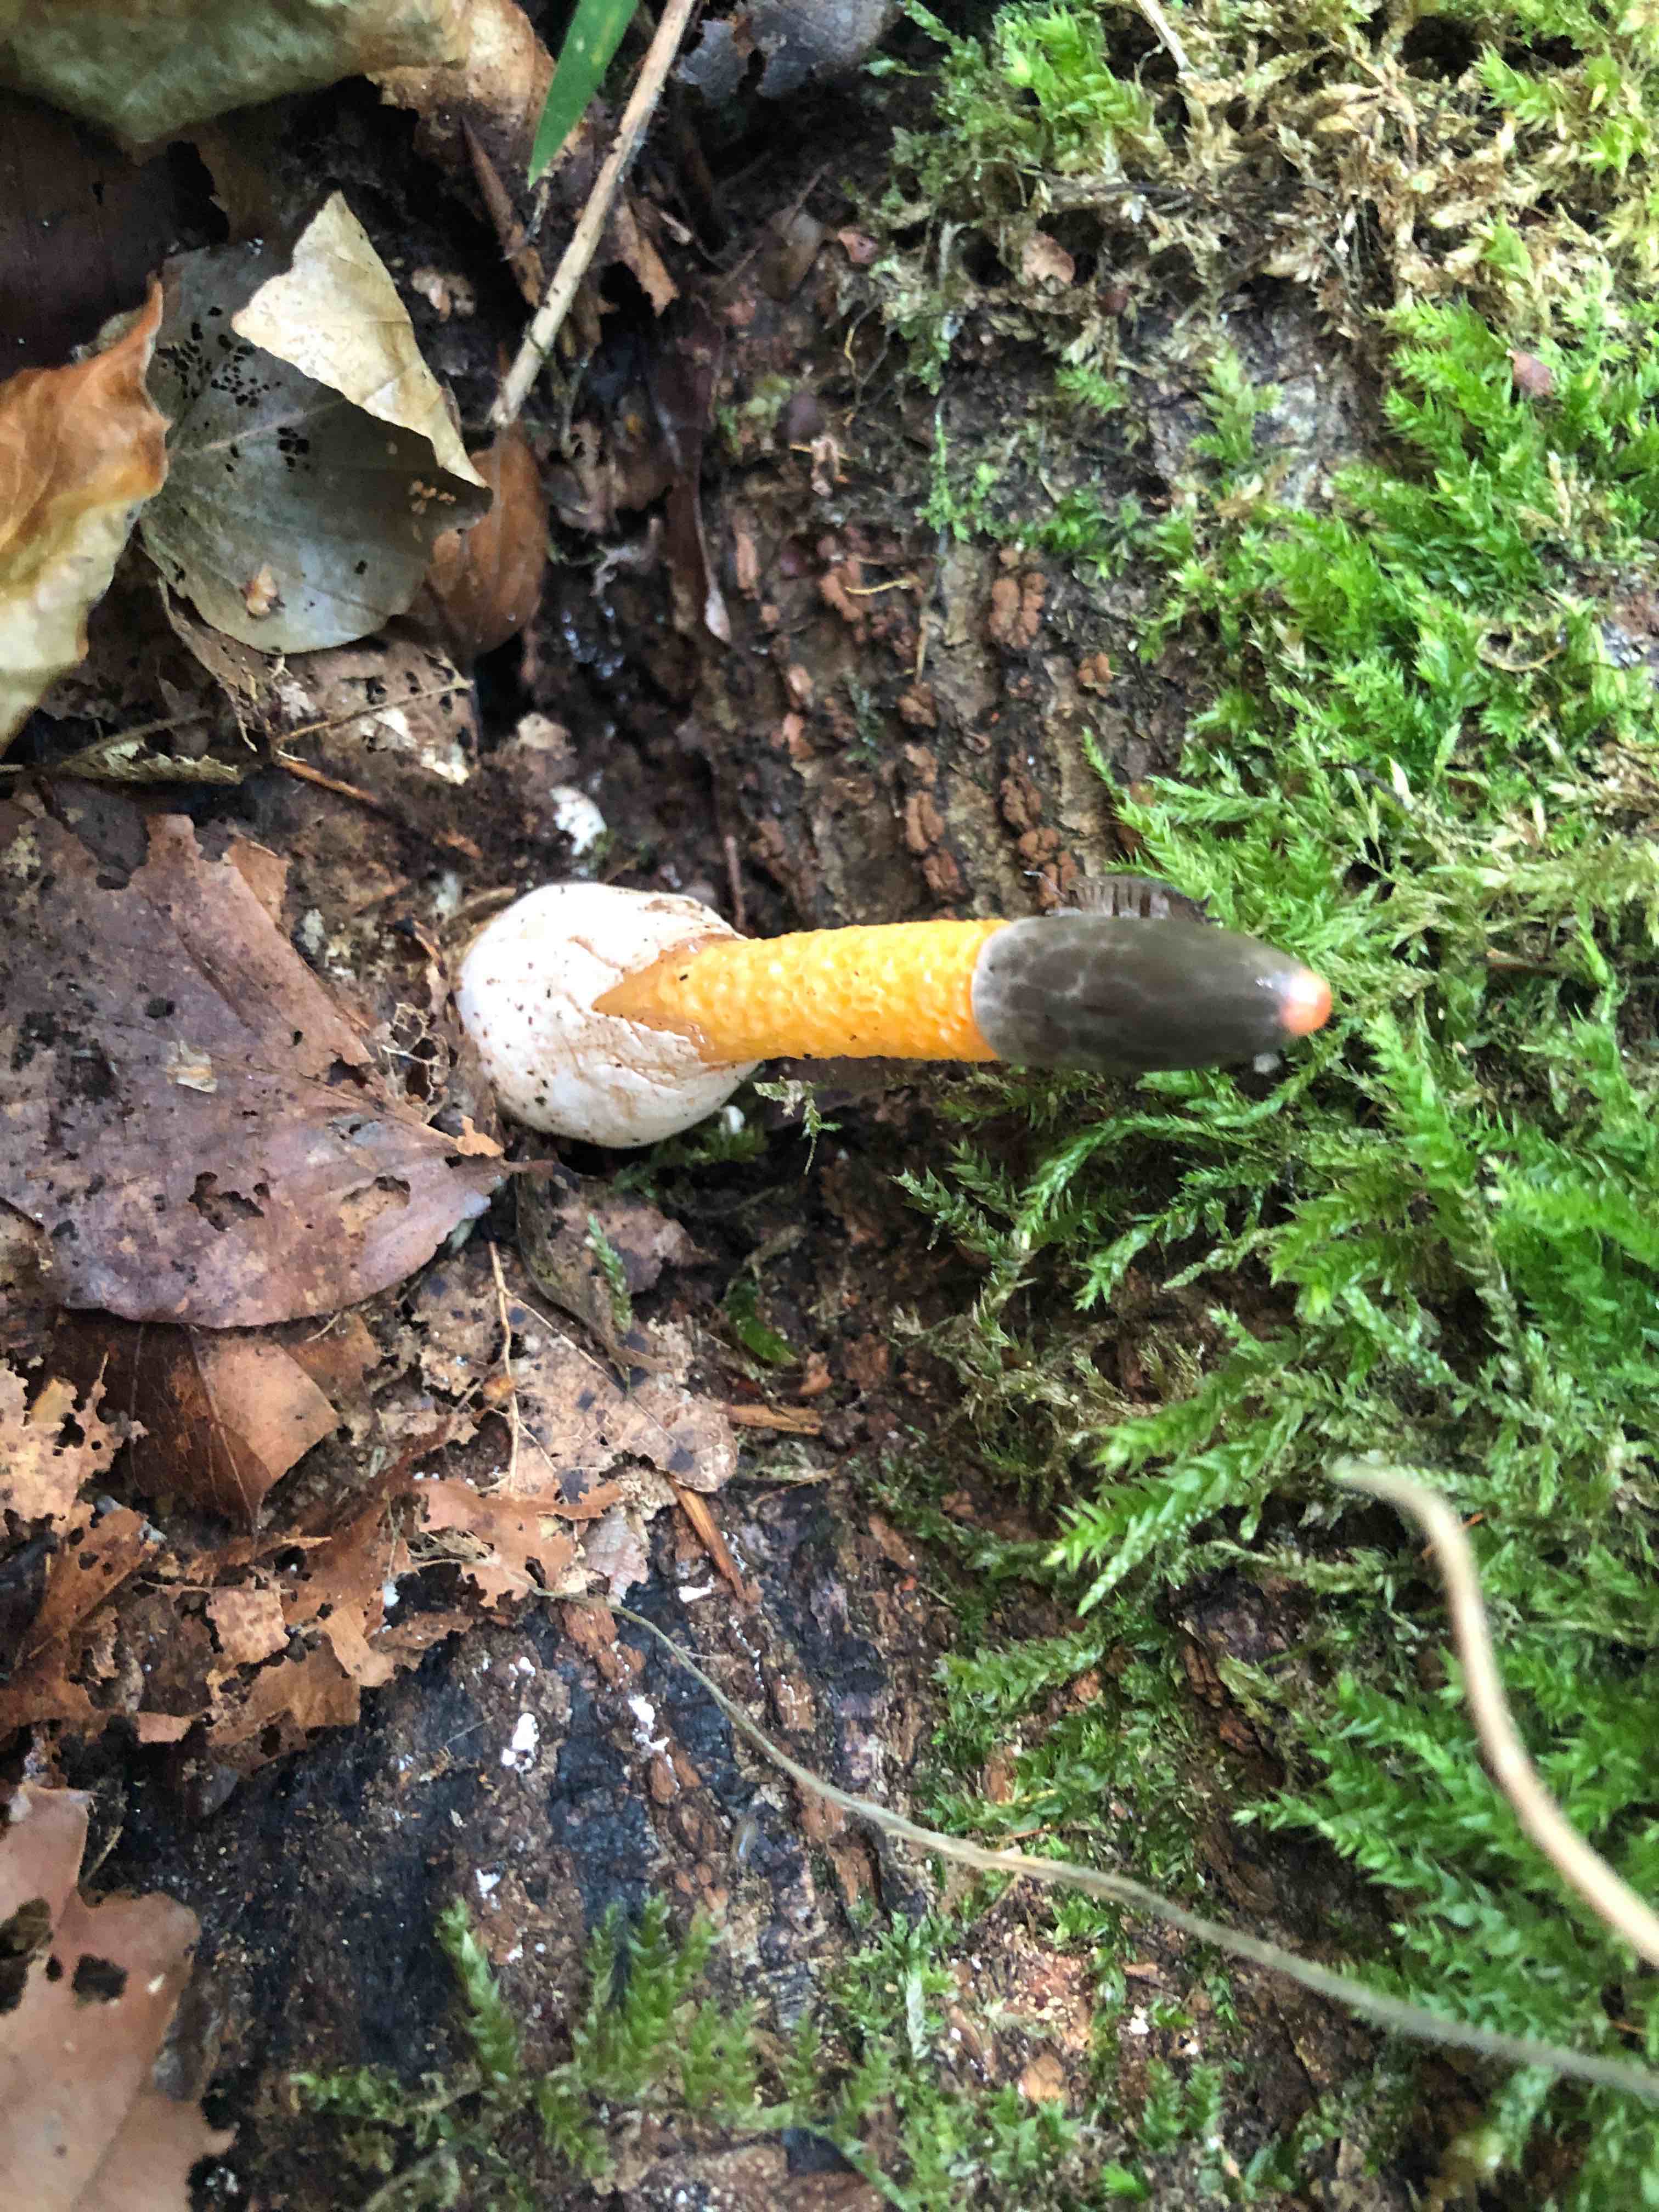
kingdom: Fungi
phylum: Basidiomycota
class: Agaricomycetes
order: Phallales
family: Phallaceae
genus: Mutinus
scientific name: Mutinus caninus
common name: hunde-stinksvamp
